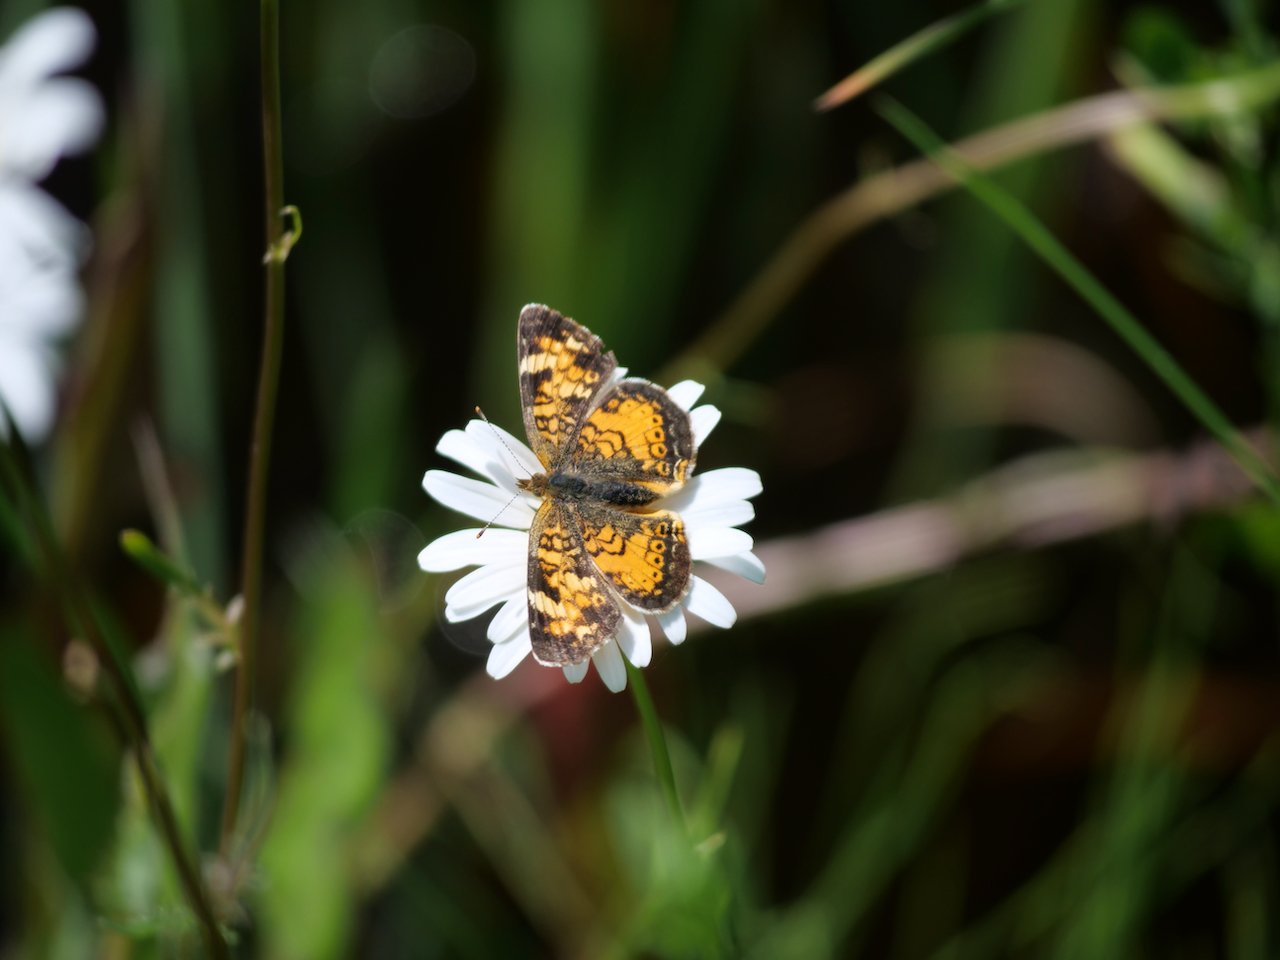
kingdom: Animalia
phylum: Arthropoda
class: Insecta
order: Lepidoptera
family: Nymphalidae
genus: Phyciodes
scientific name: Phyciodes tharos
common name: Northern Crescent
